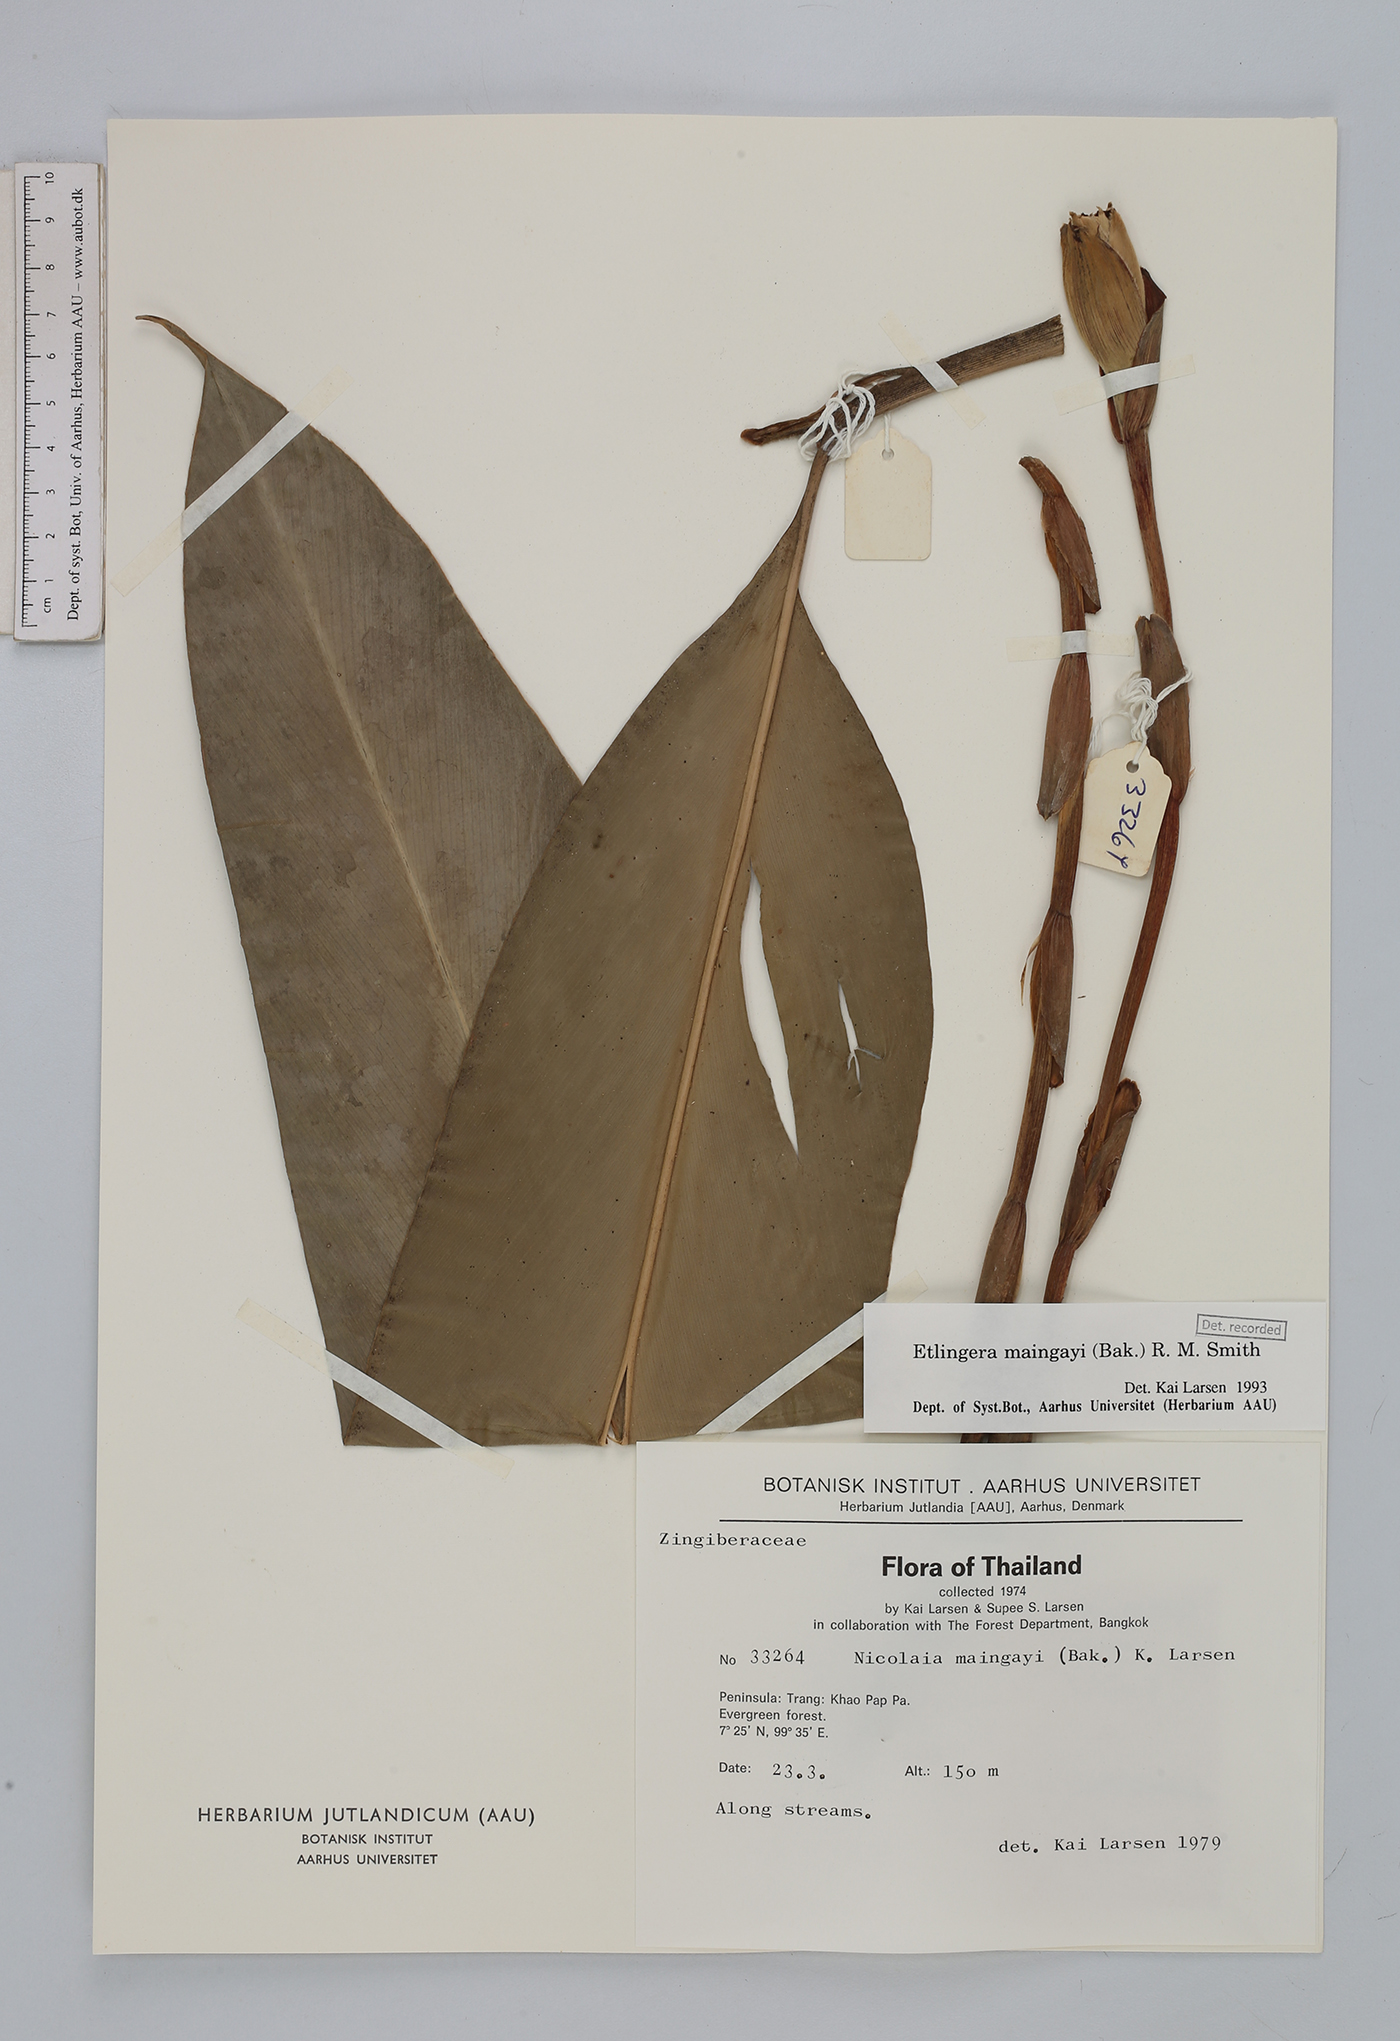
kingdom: Plantae
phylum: Tracheophyta
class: Liliopsida
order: Zingiberales
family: Zingiberaceae
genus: Etlingera
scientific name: Etlingera maingayi
